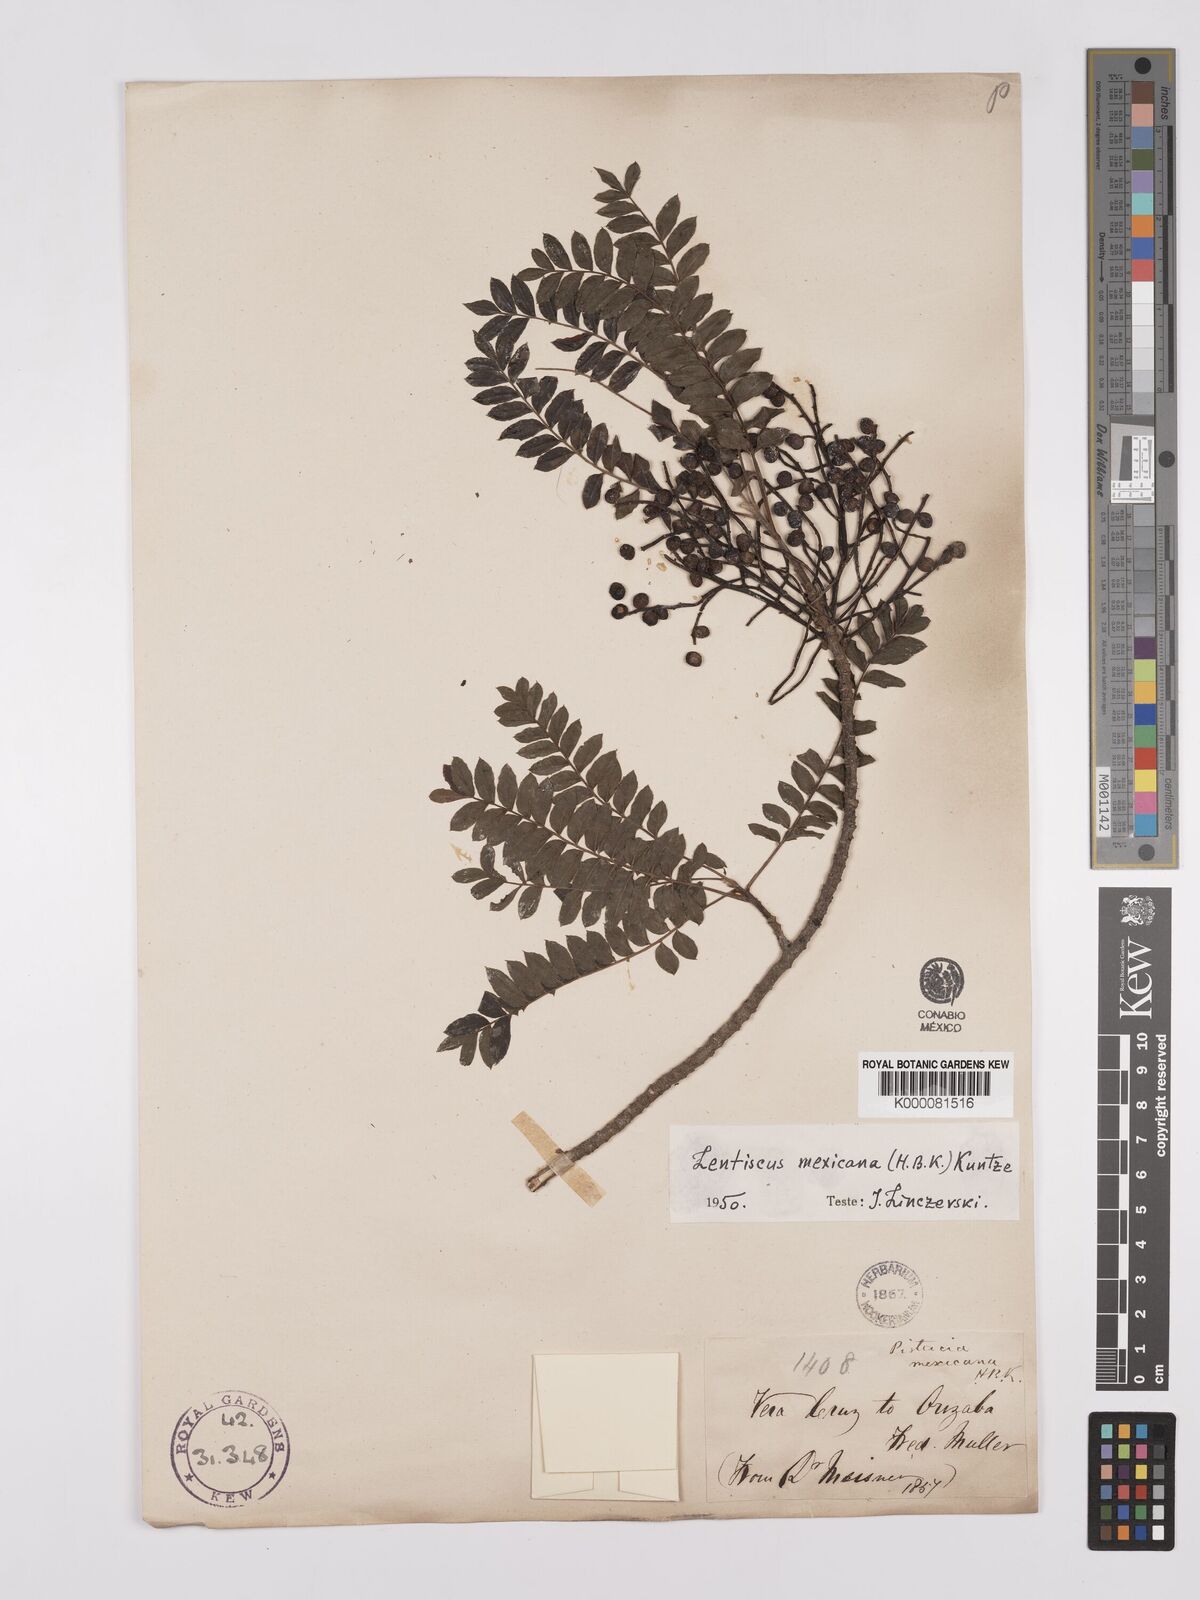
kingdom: Plantae
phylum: Tracheophyta
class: Magnoliopsida
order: Sapindales
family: Anacardiaceae
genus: Pistacia
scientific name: Pistacia mexicana
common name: Mexican pistachio
